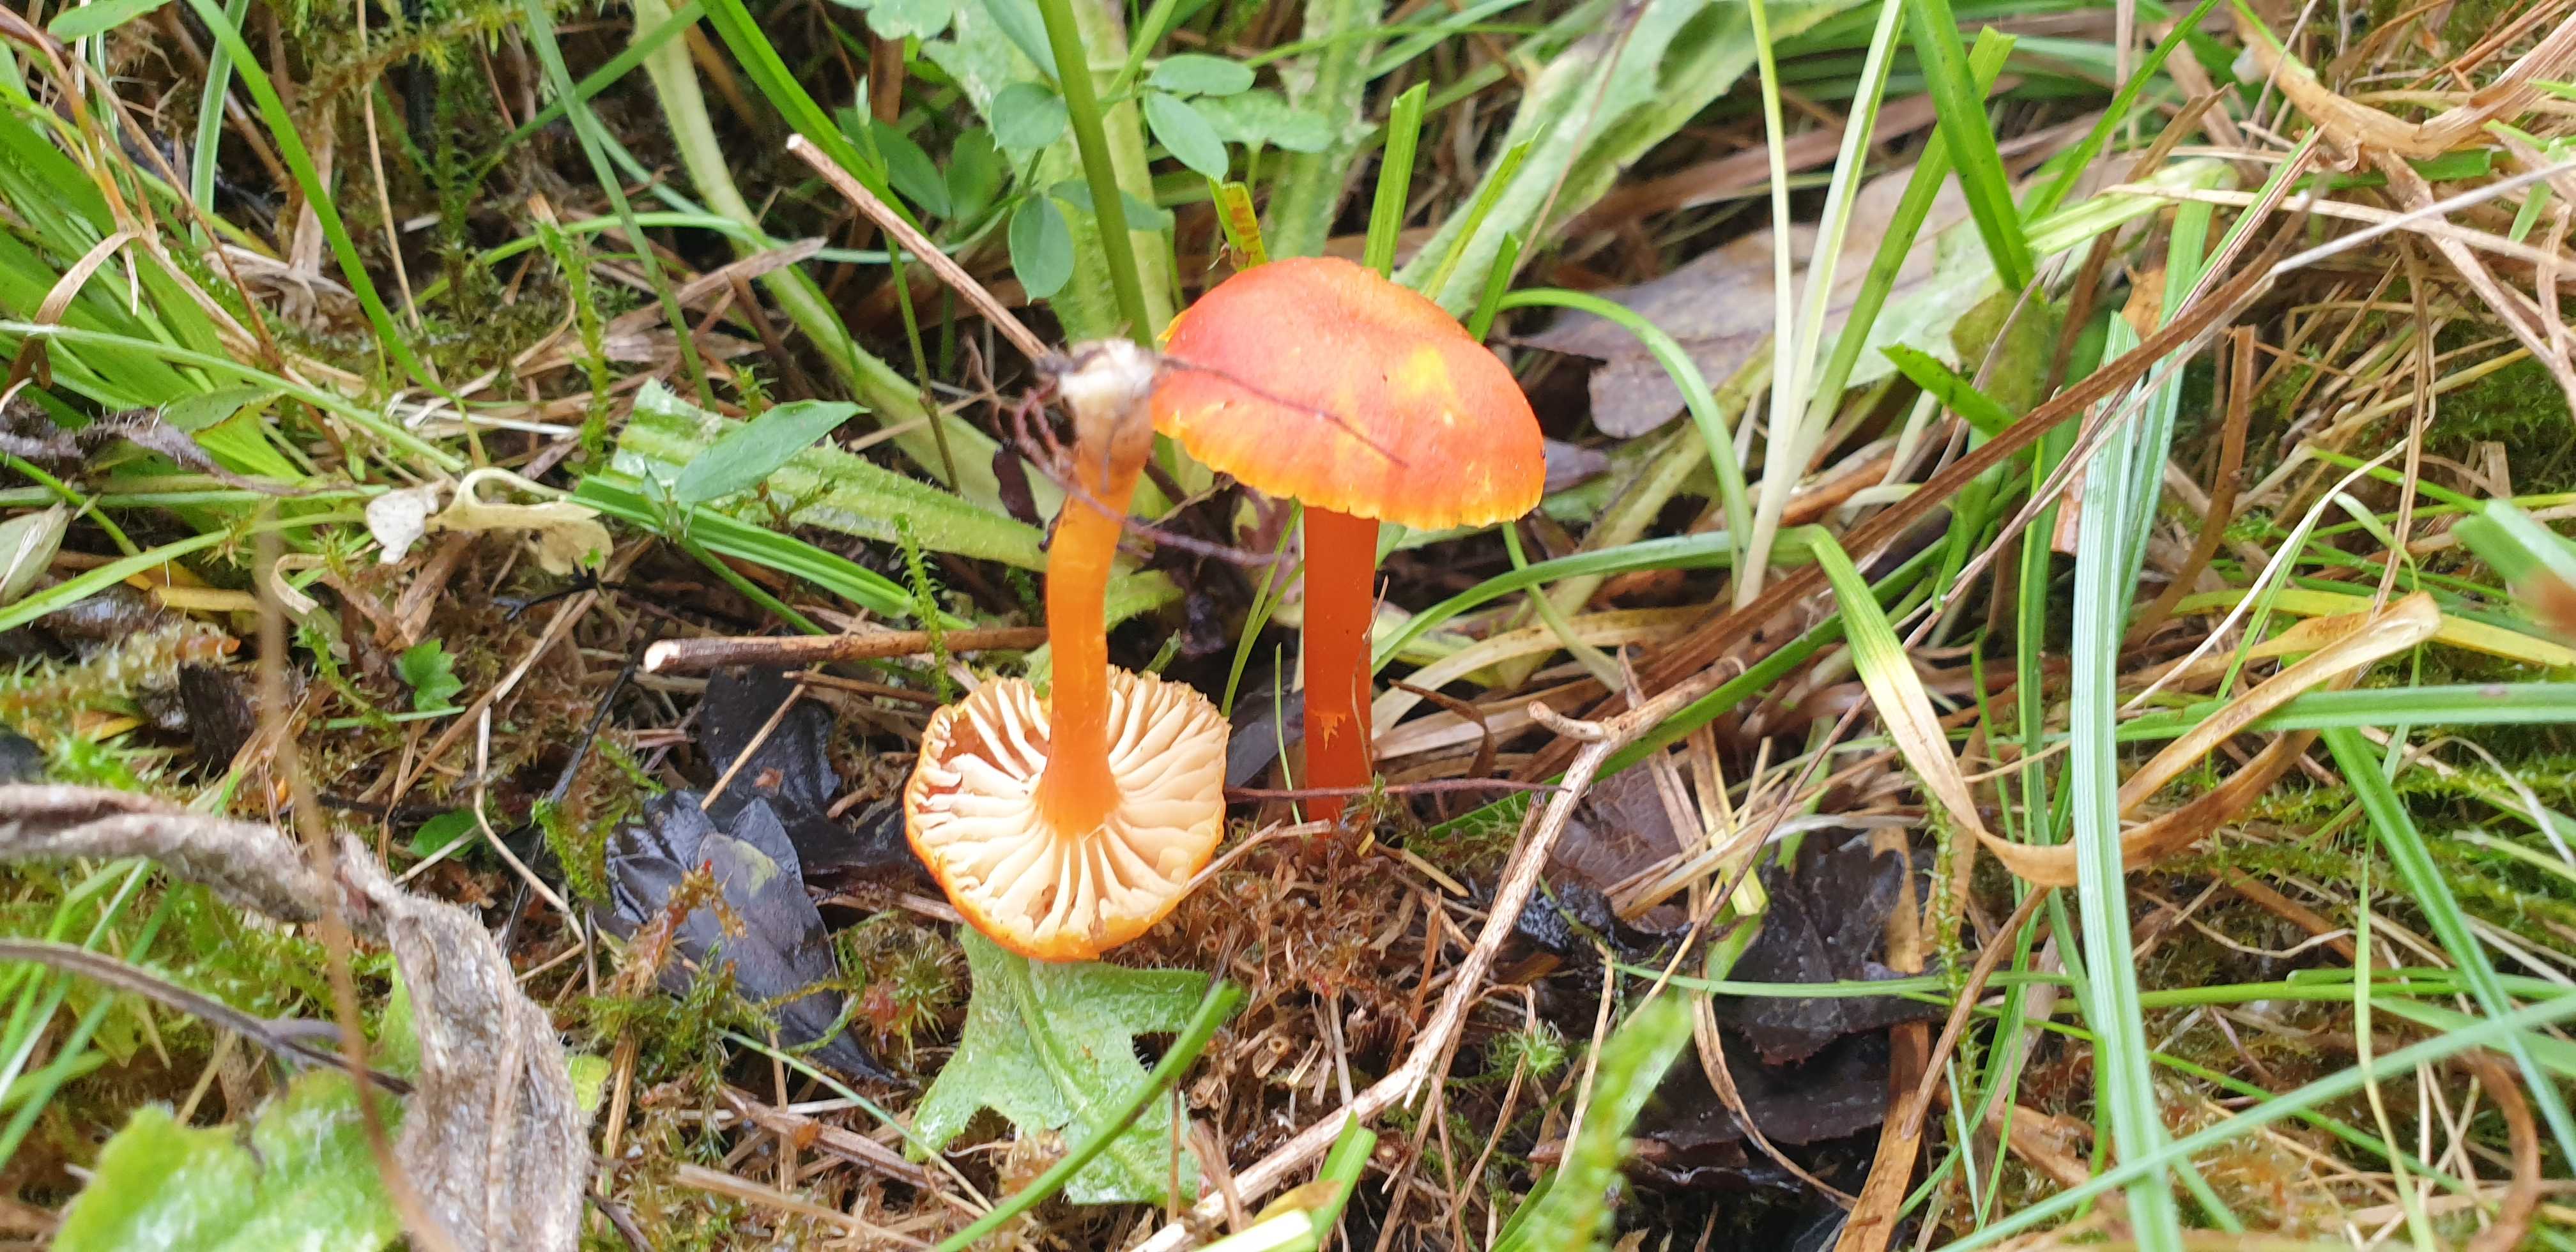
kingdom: Fungi
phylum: Basidiomycota
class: Agaricomycetes
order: Agaricales
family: Hygrophoraceae
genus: Hygrocybe
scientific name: Hygrocybe cantharellus
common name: kantarel-vokshat
